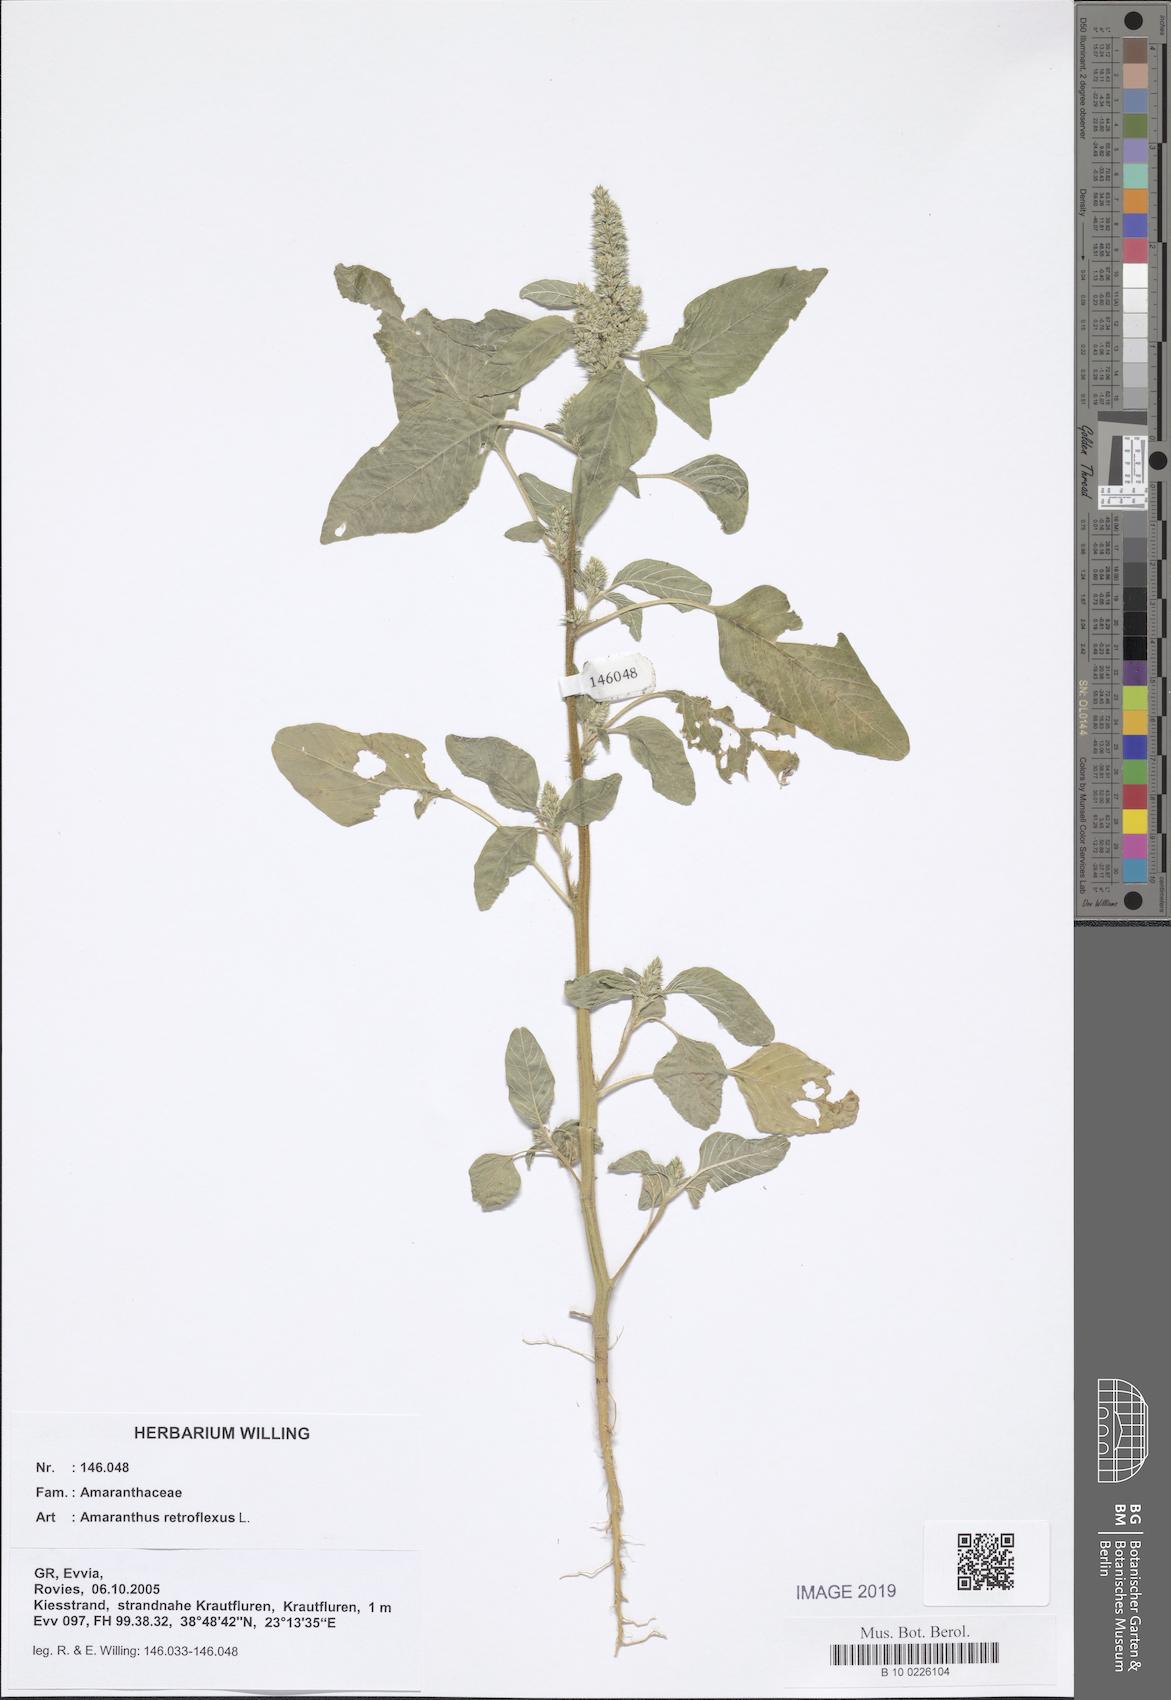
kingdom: Plantae
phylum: Tracheophyta
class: Magnoliopsida
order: Caryophyllales
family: Amaranthaceae
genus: Amaranthus
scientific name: Amaranthus retroflexus
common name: Redroot amaranth
